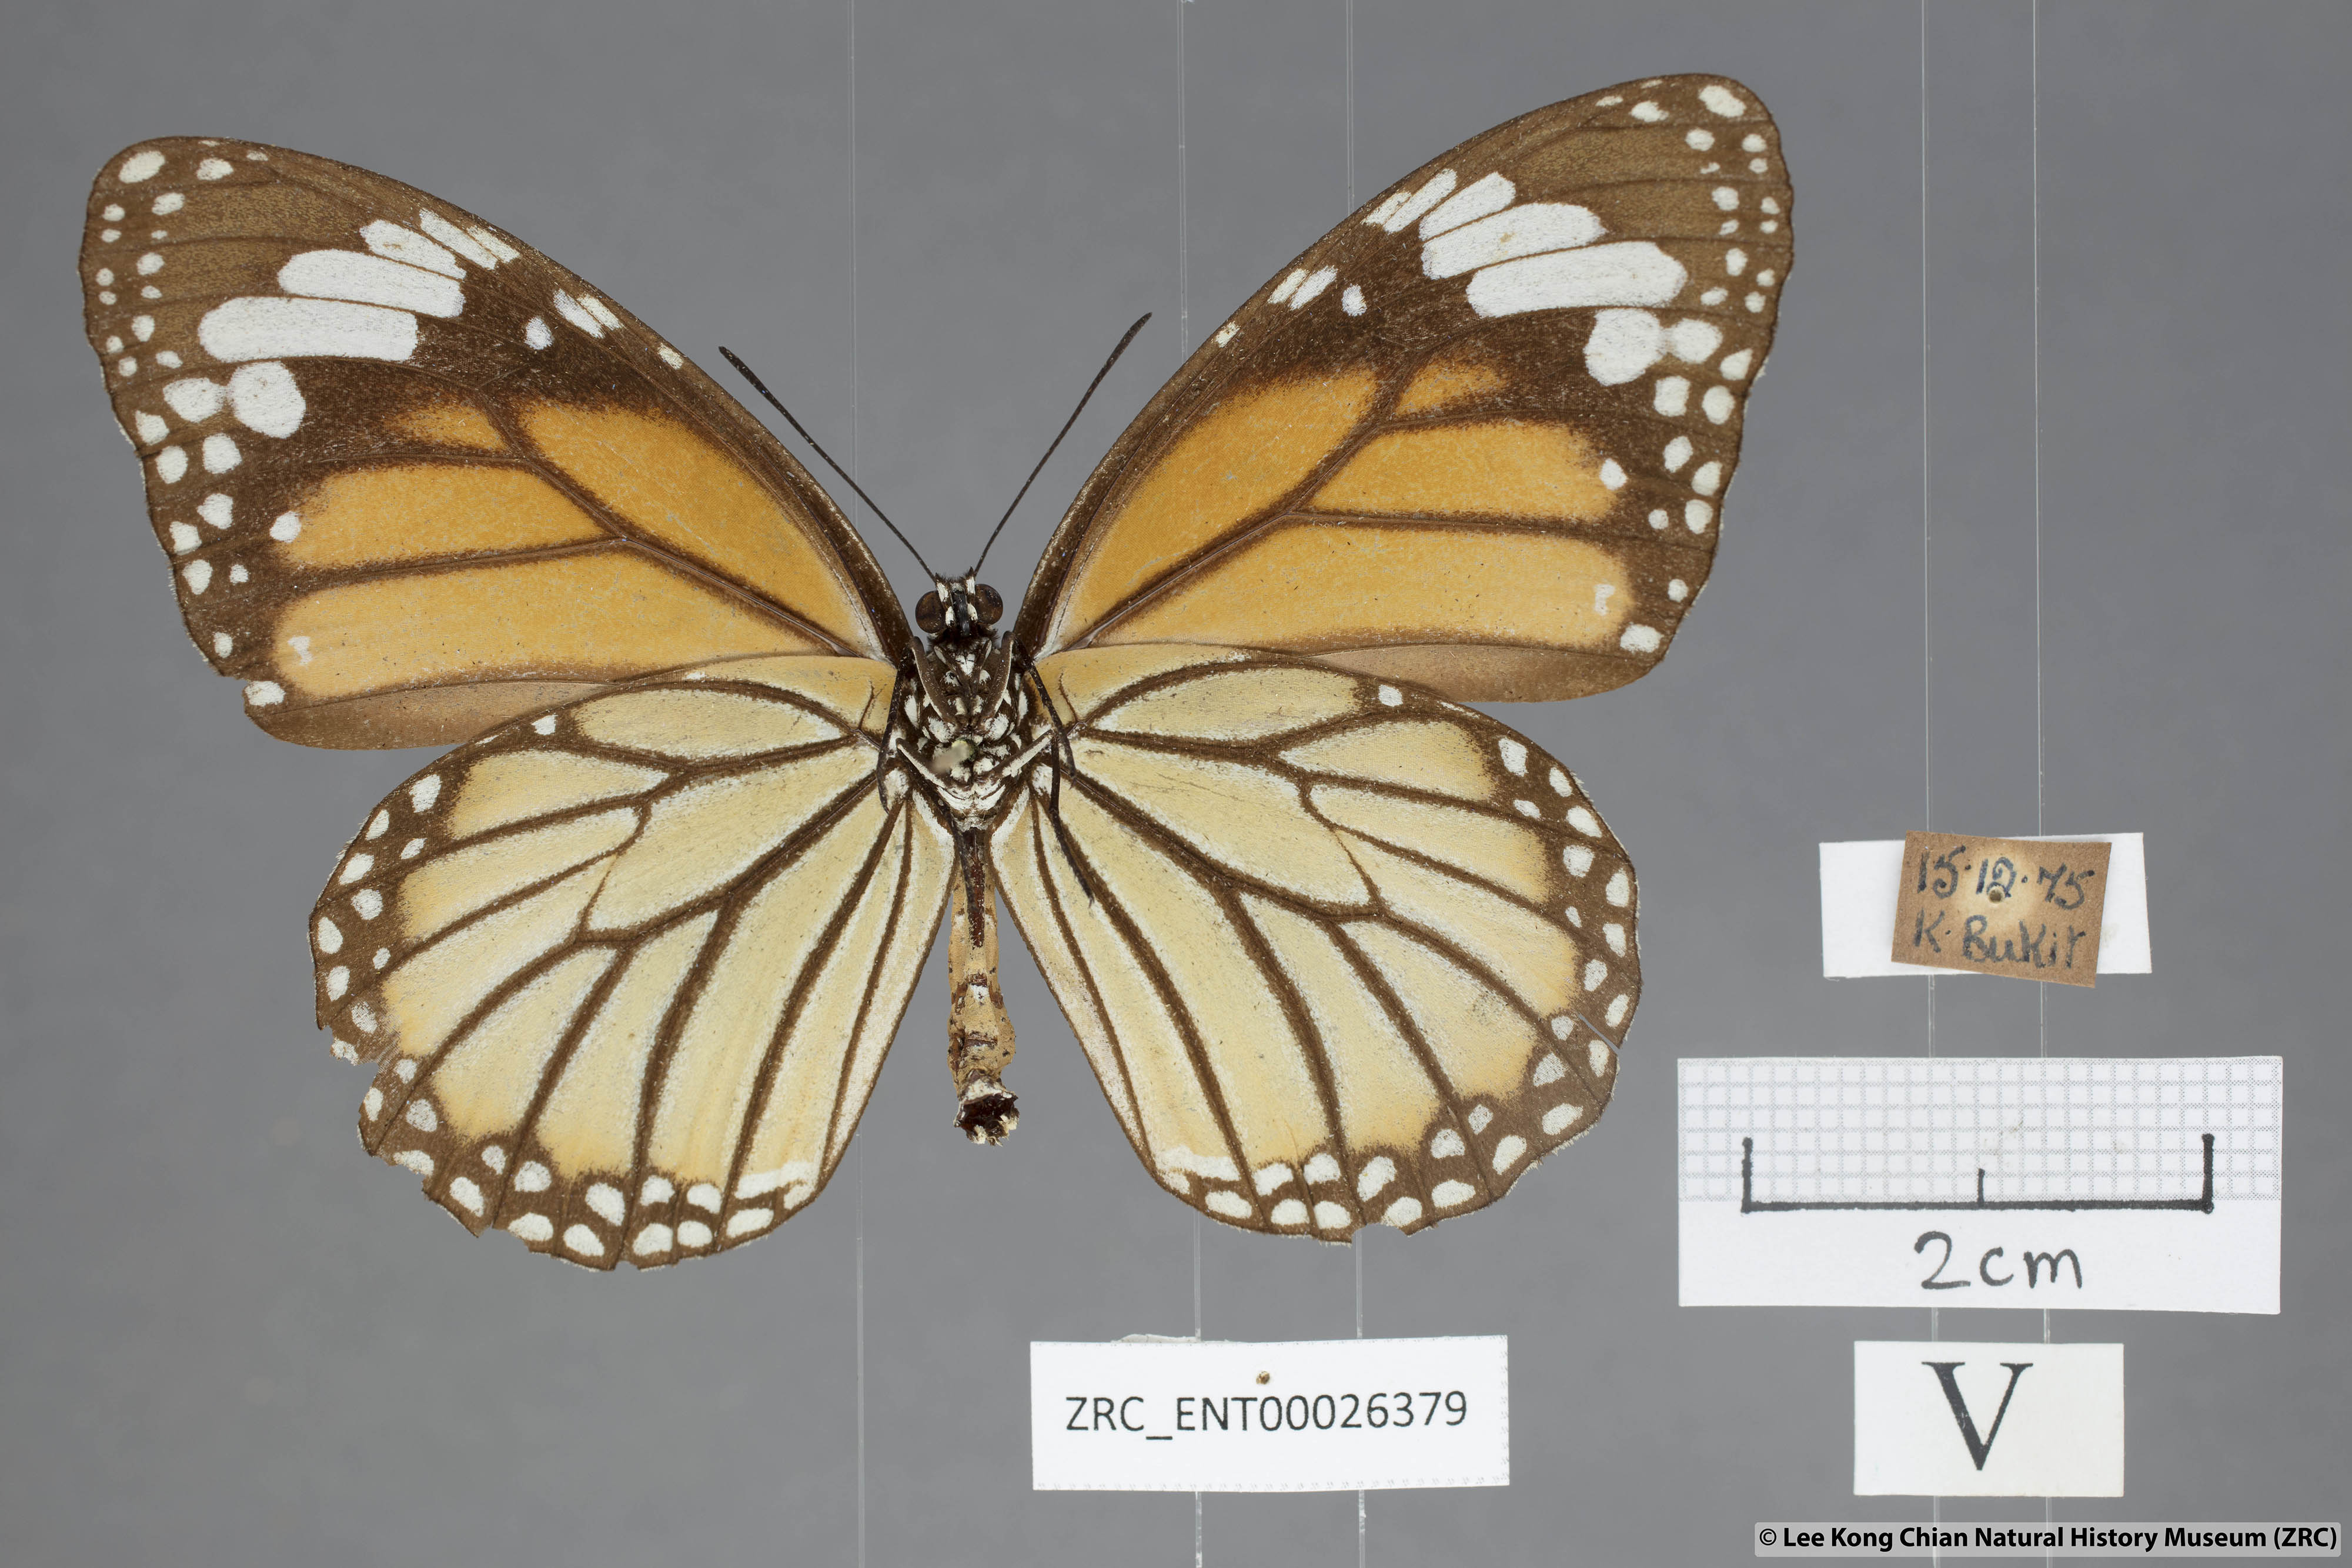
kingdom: Animalia
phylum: Arthropoda
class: Insecta
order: Lepidoptera
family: Nymphalidae
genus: Danaus
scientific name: Danaus genutia
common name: Common tiger butterfly
